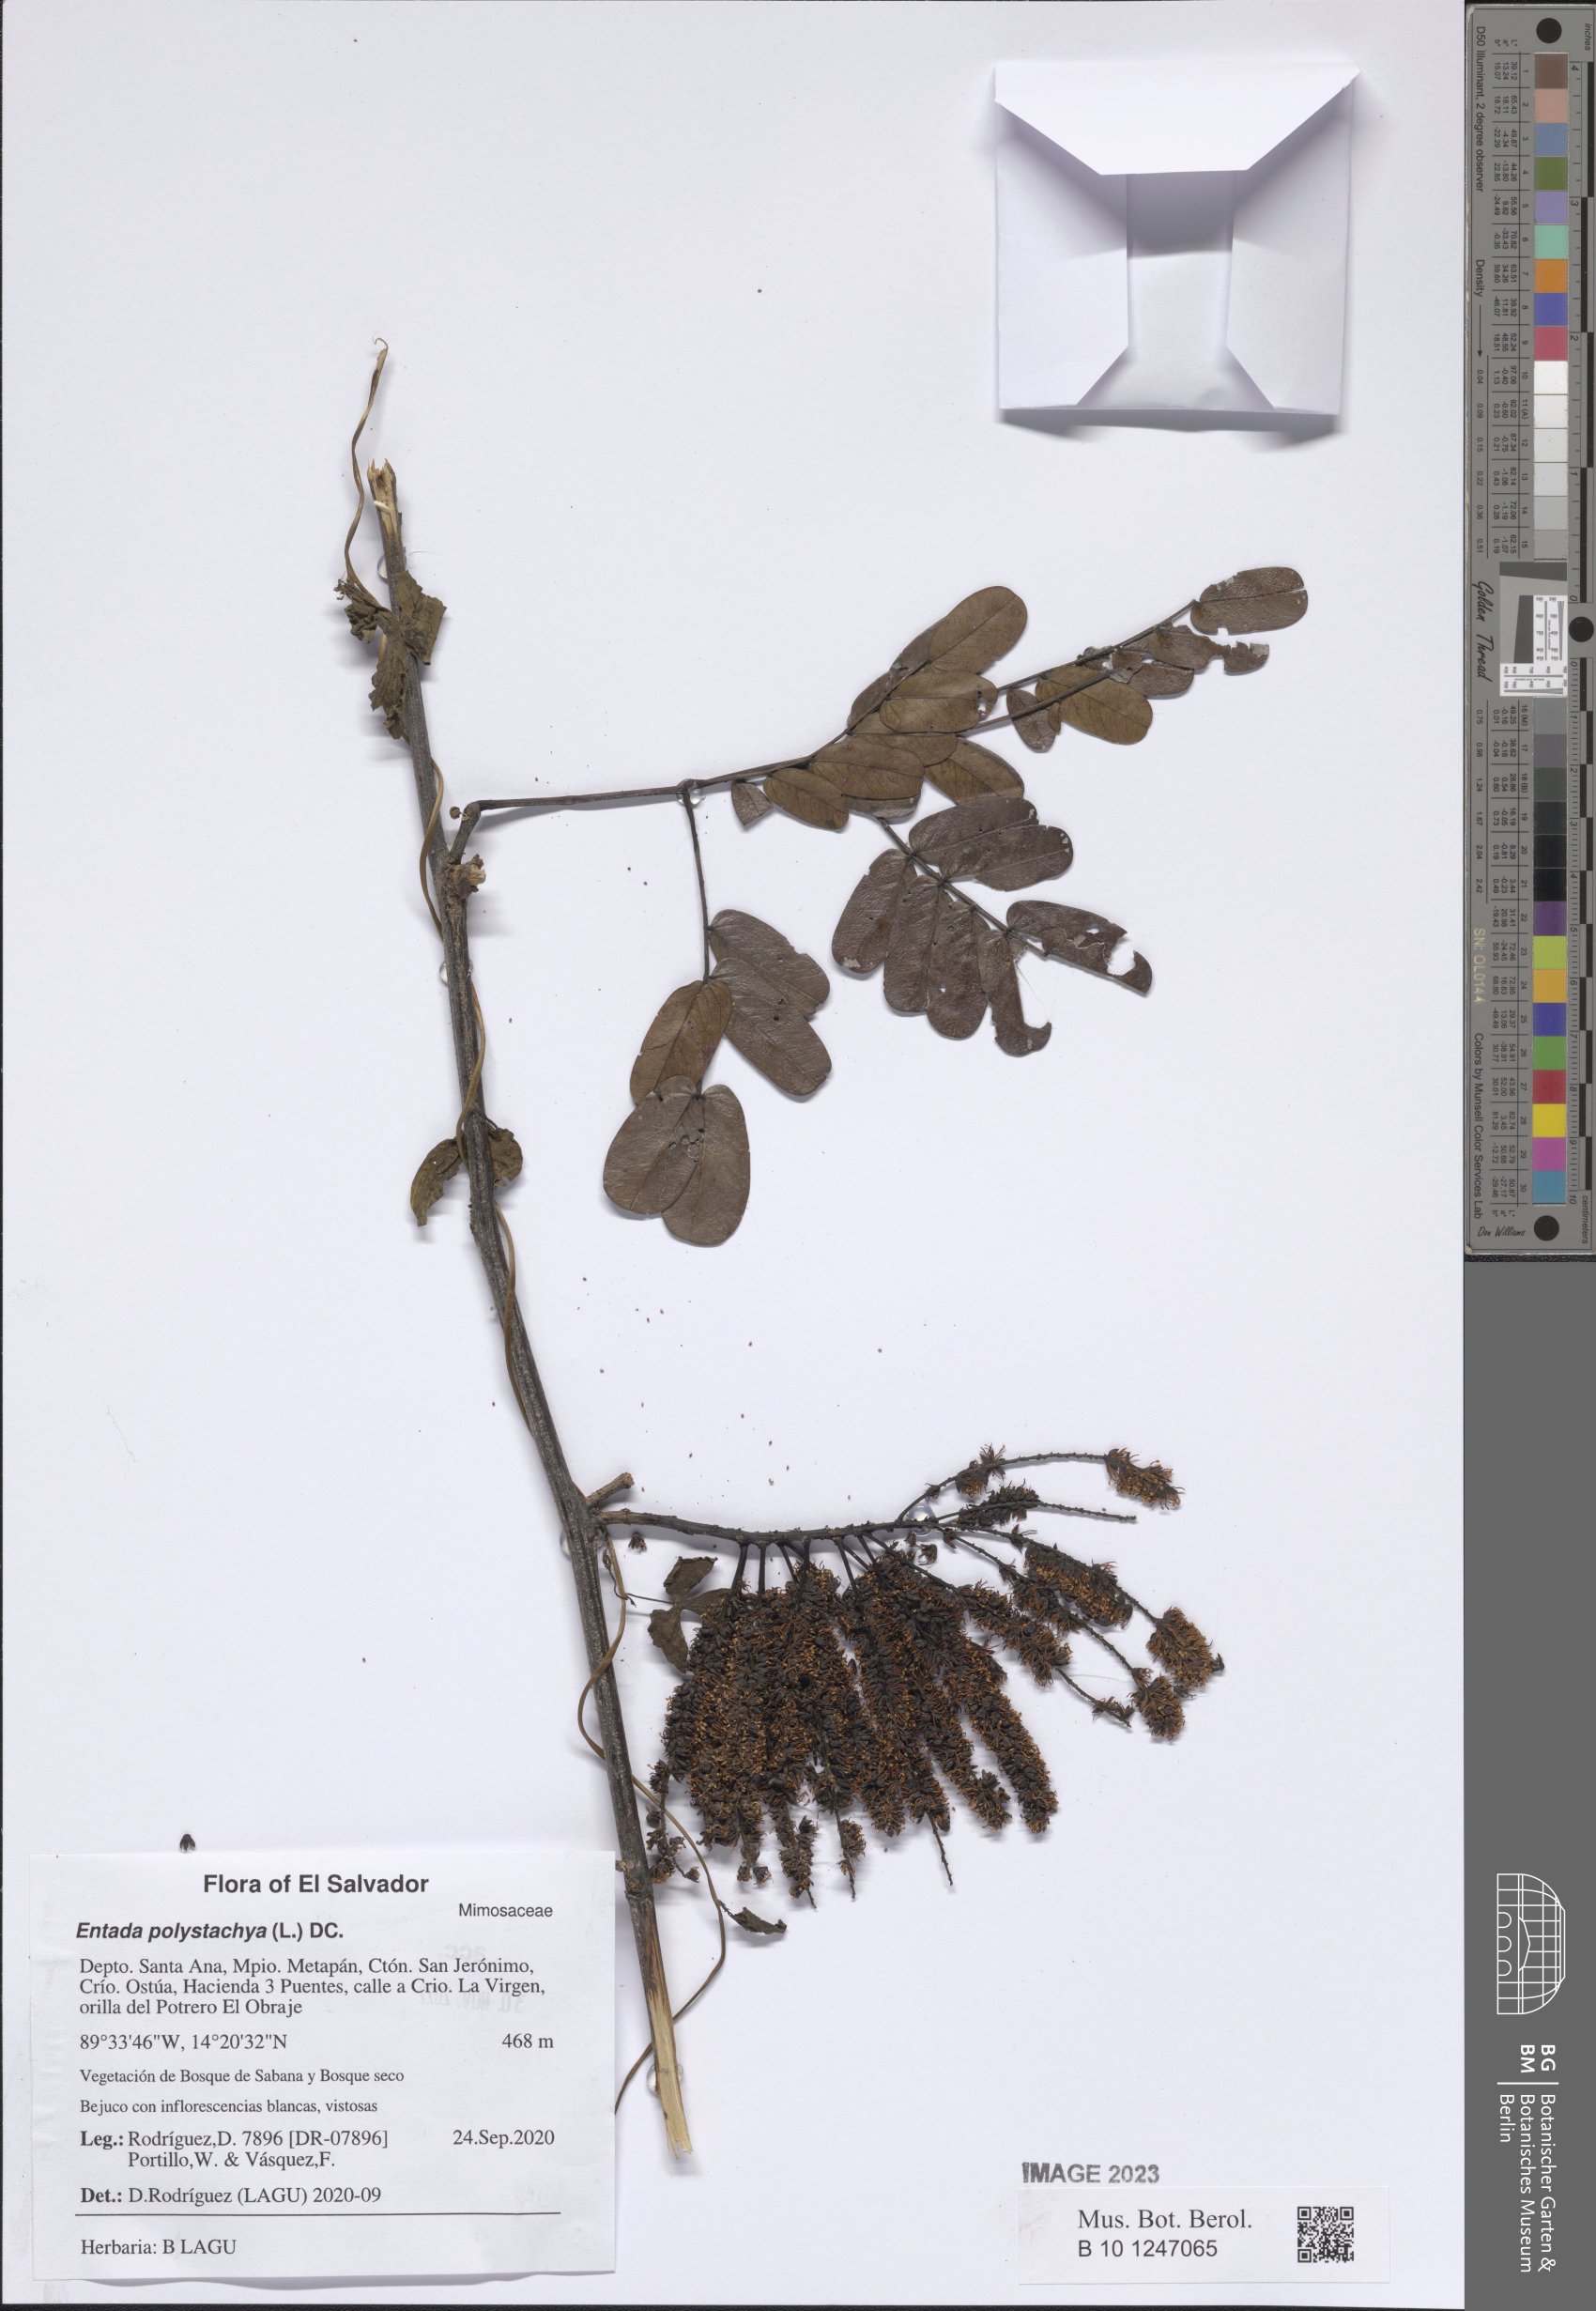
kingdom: Plantae
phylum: Tracheophyta
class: Magnoliopsida
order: Fabales
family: Fabaceae
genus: Entada
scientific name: Entada polystachya
